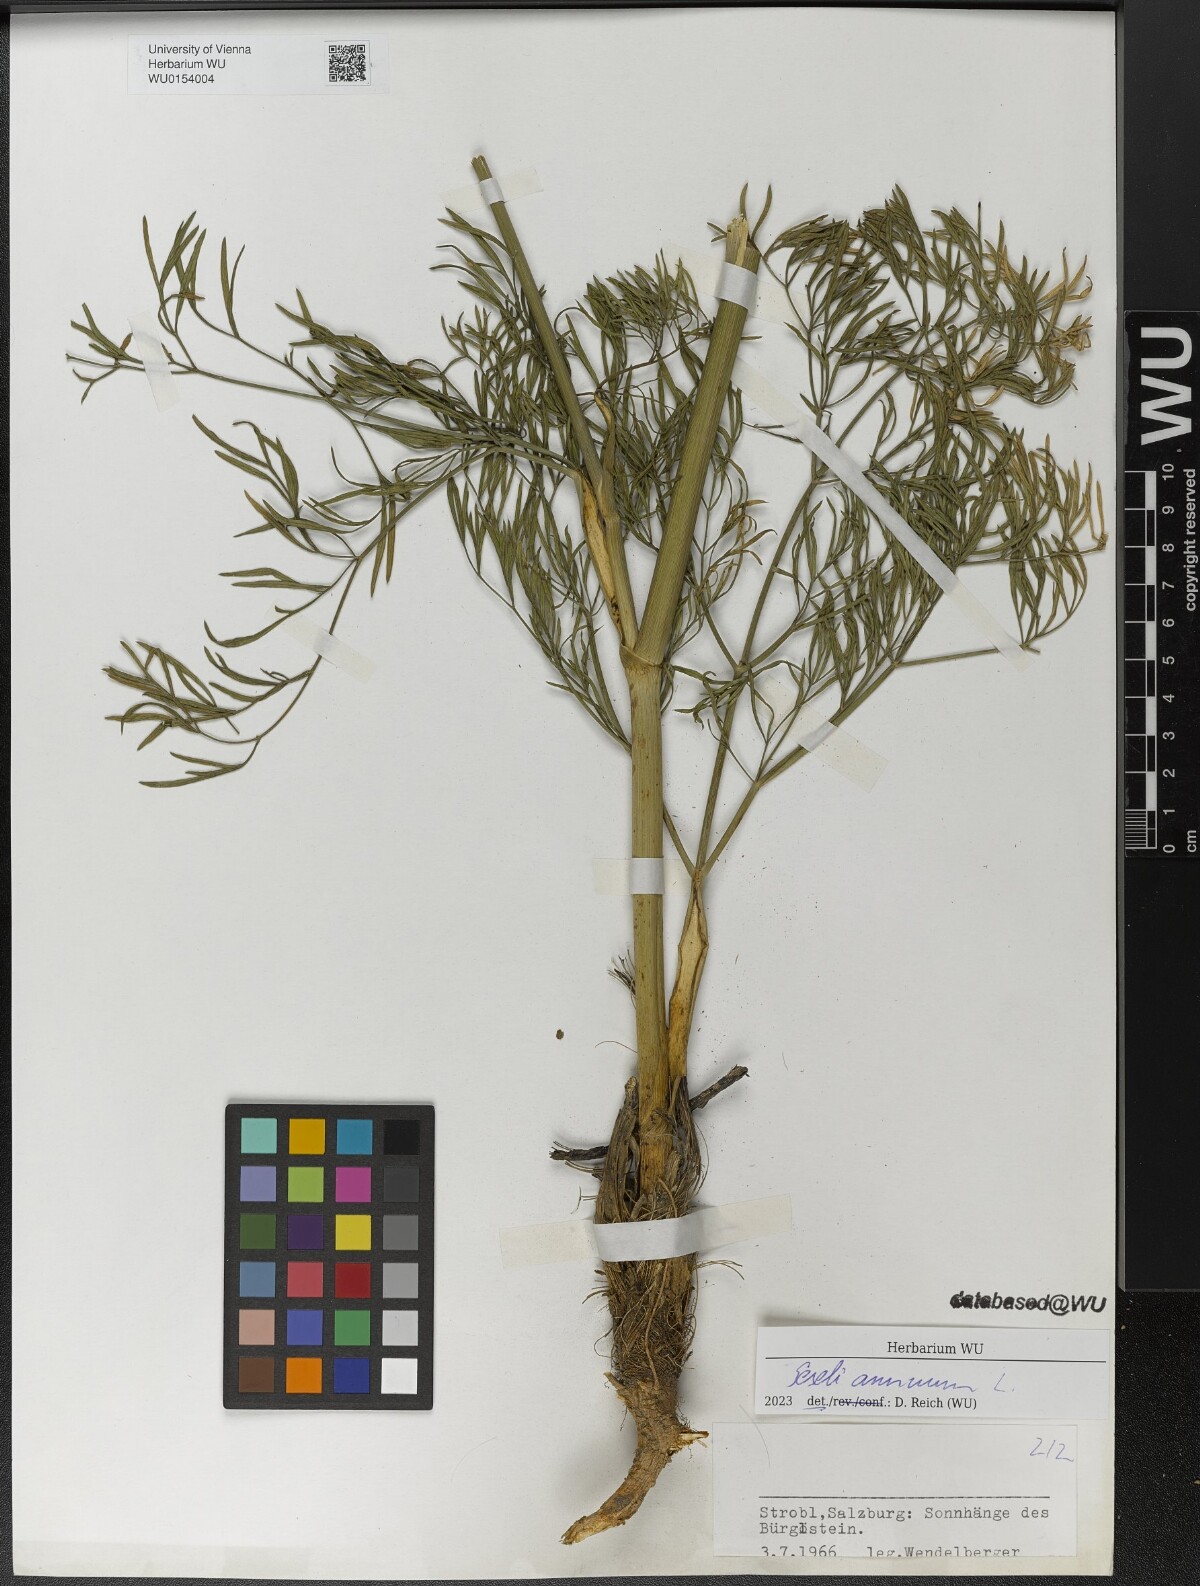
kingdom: Plantae
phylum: Tracheophyta
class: Magnoliopsida
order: Apiales
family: Apiaceae
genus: Seseli
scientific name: Seseli annuum
